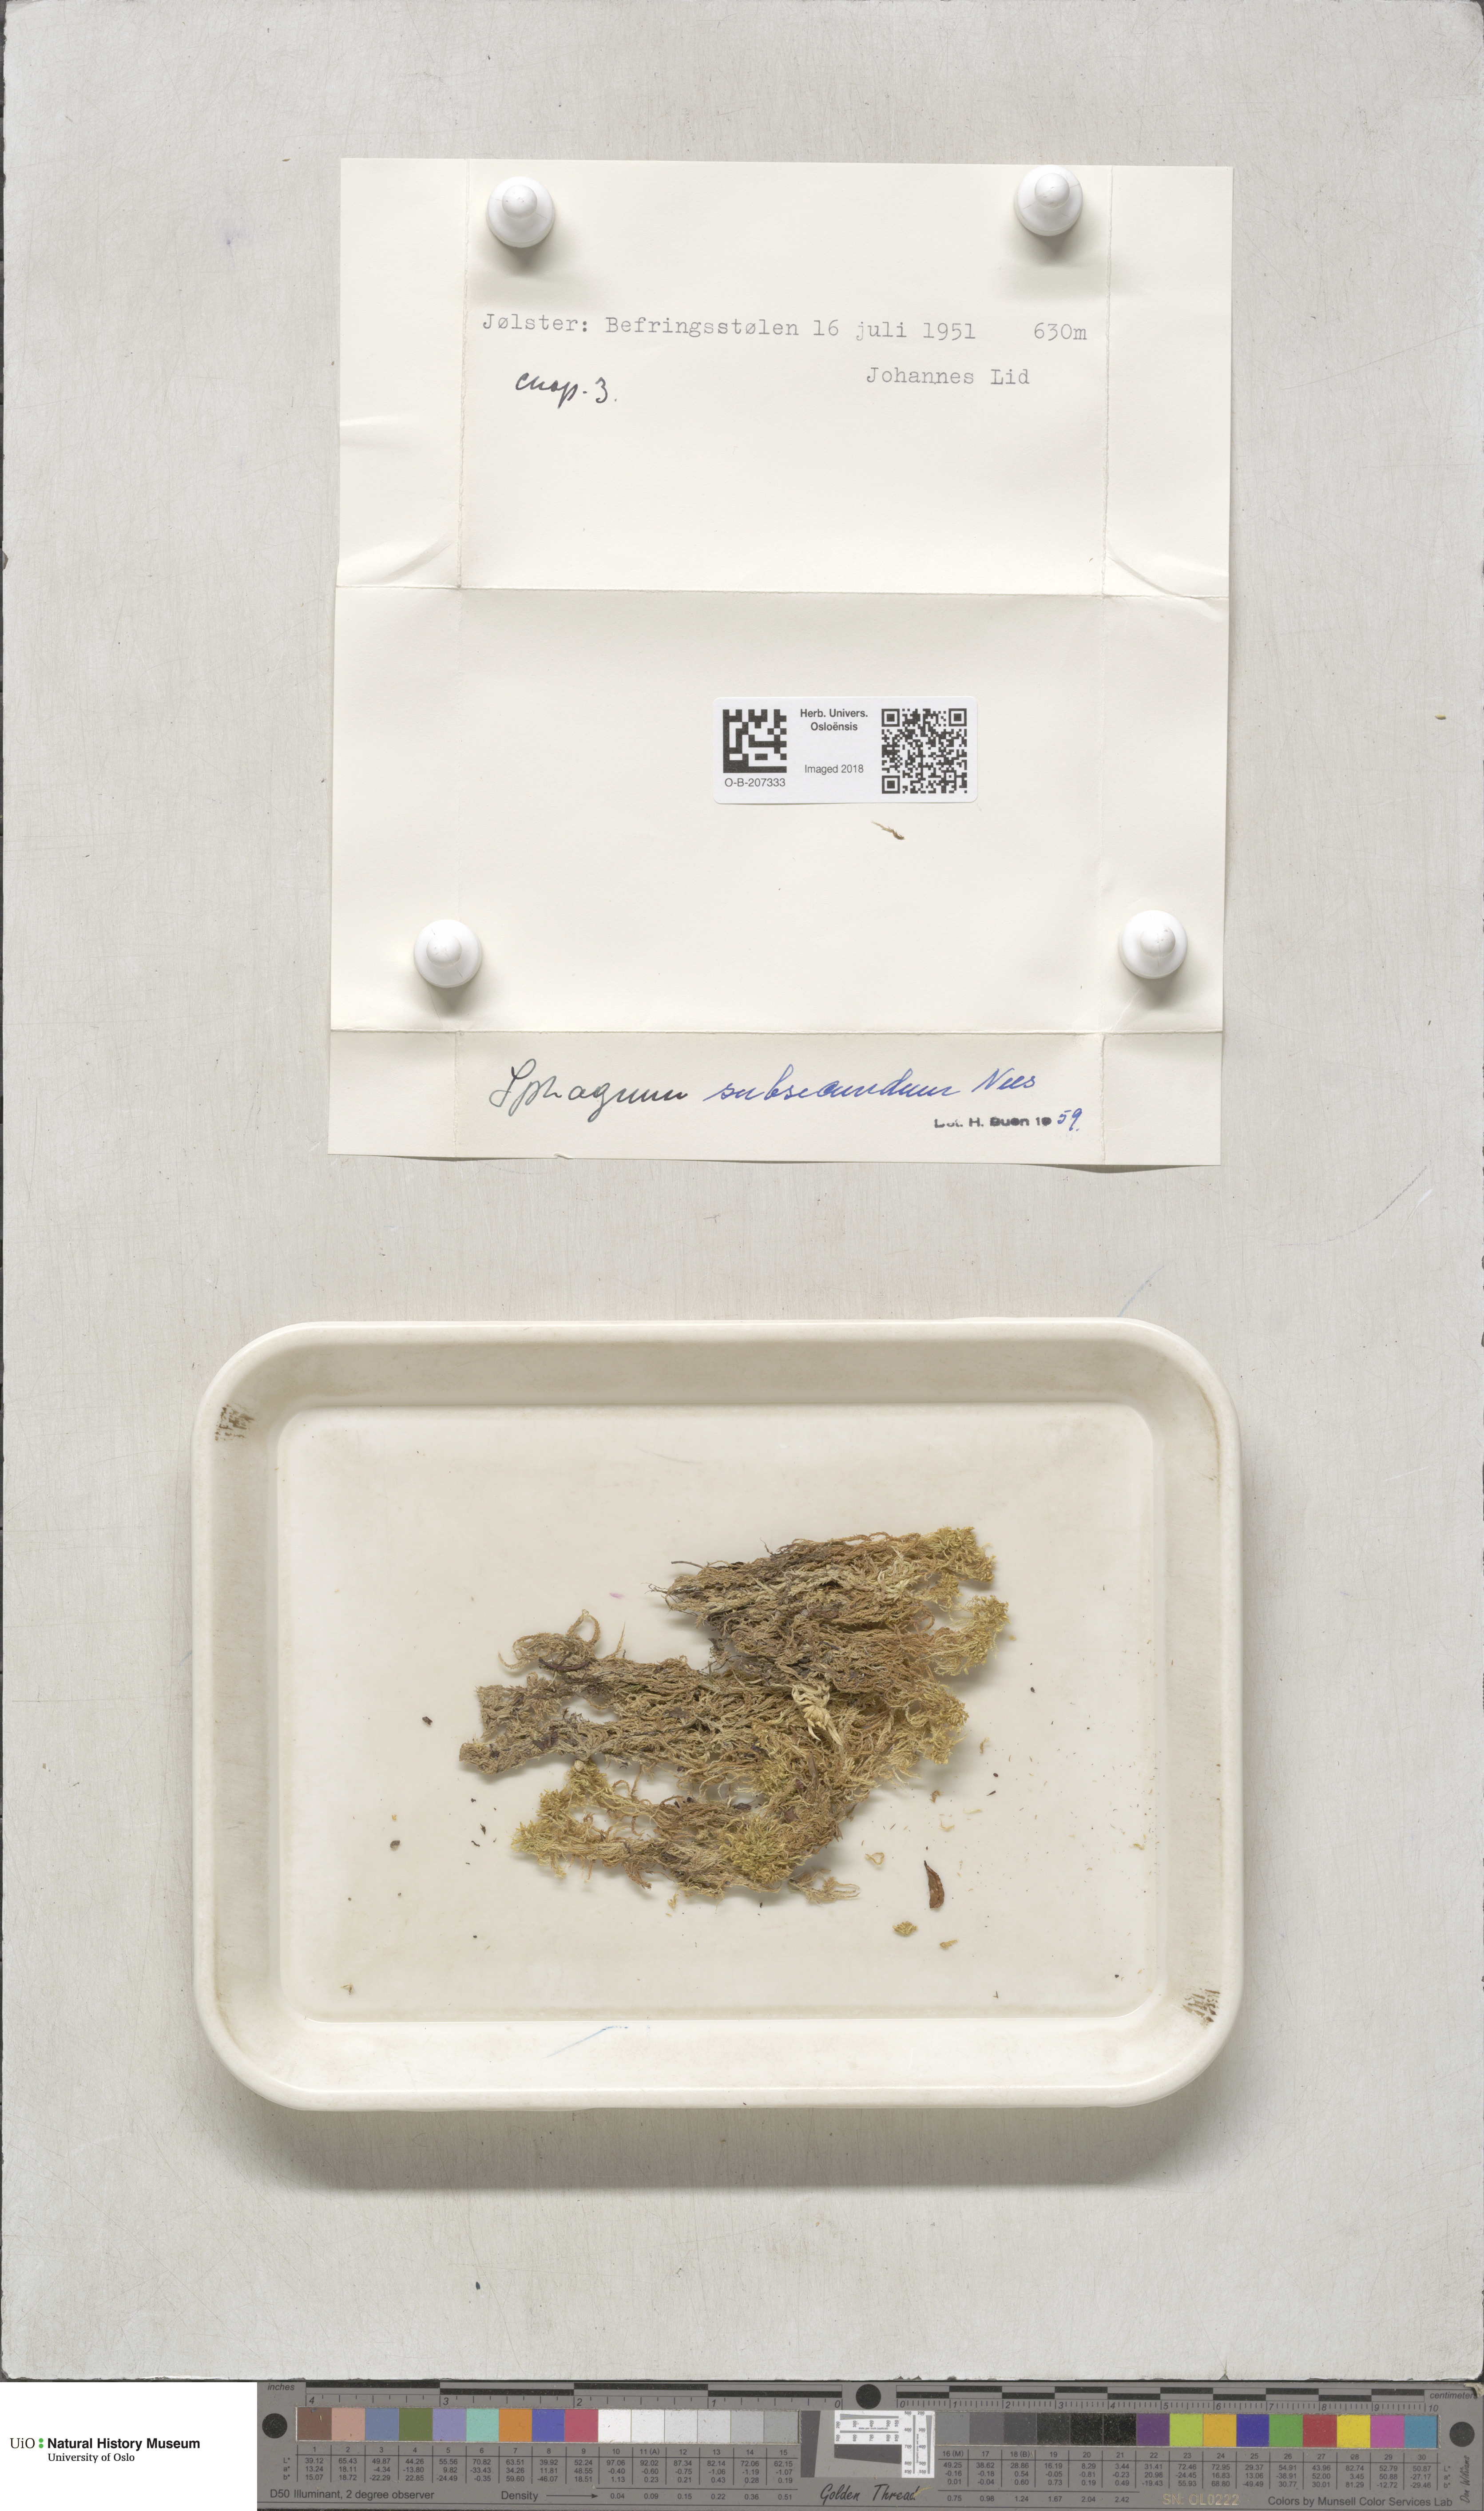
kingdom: Plantae
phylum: Bryophyta
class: Sphagnopsida
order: Sphagnales
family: Sphagnaceae
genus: Sphagnum
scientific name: Sphagnum subsecundum
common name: Orange peat moss
